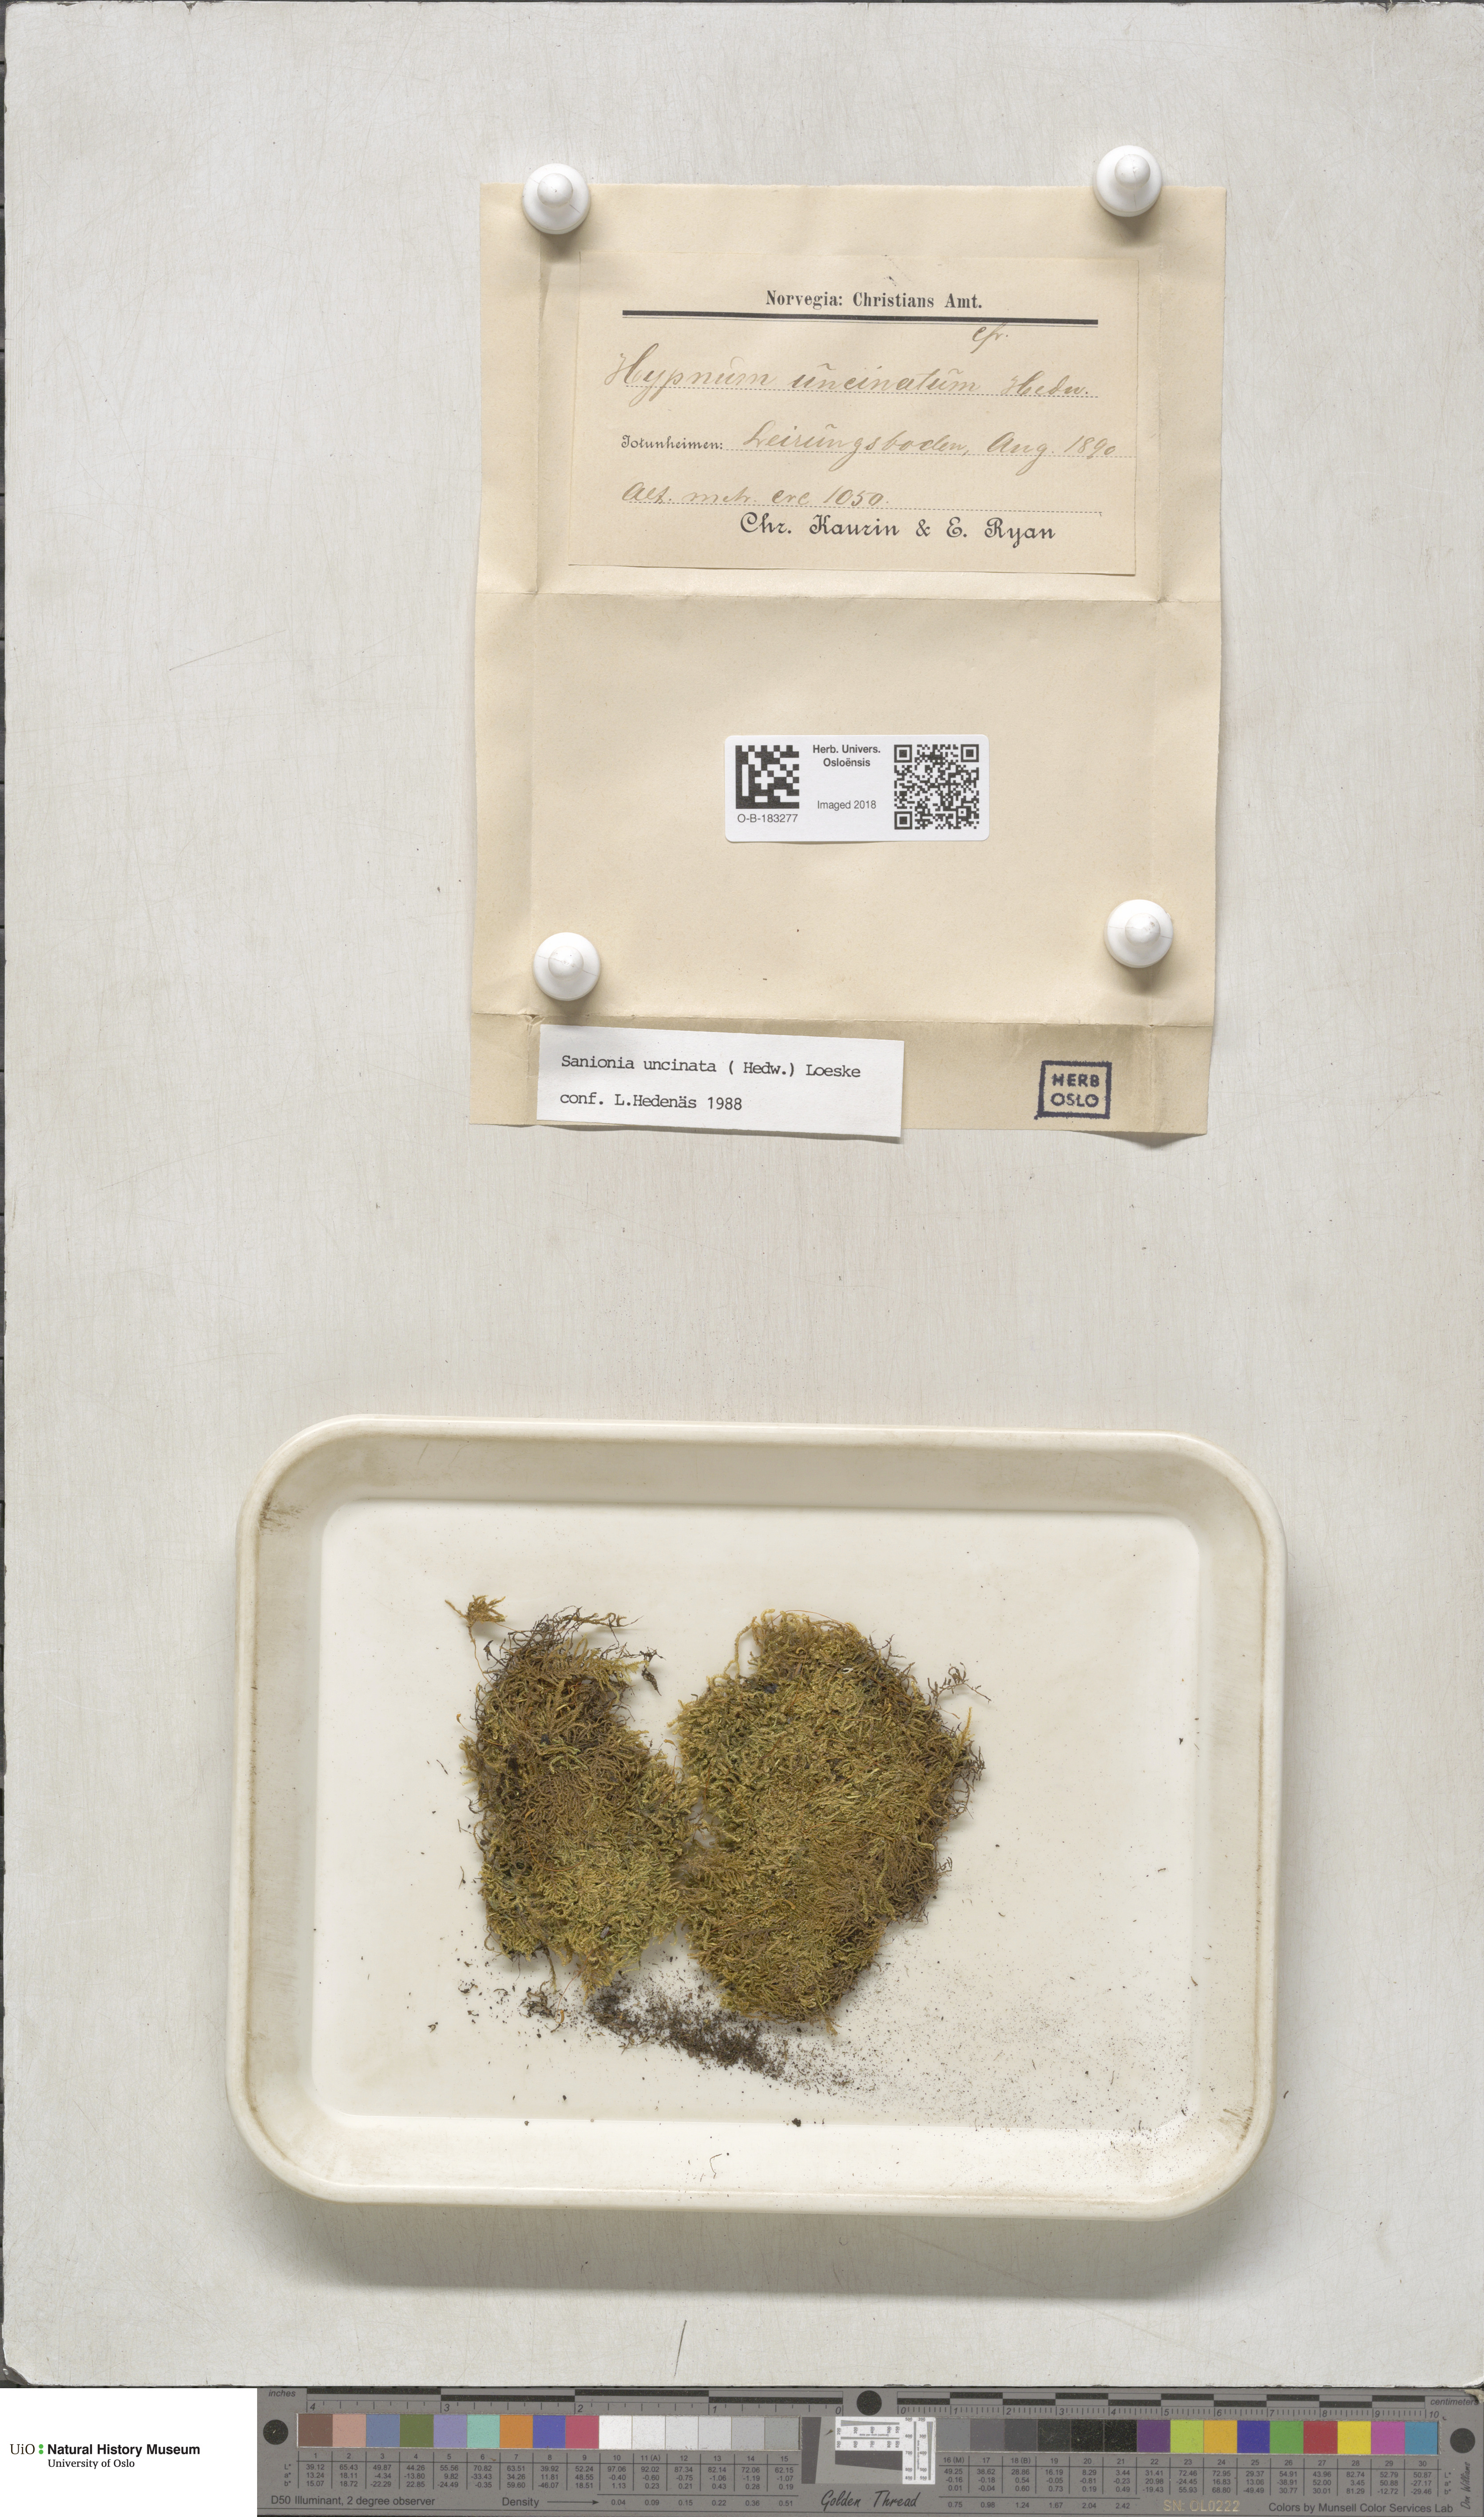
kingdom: Plantae
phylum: Bryophyta
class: Bryopsida
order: Hypnales
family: Scorpidiaceae
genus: Sanionia
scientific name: Sanionia uncinata
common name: Sickle moss
